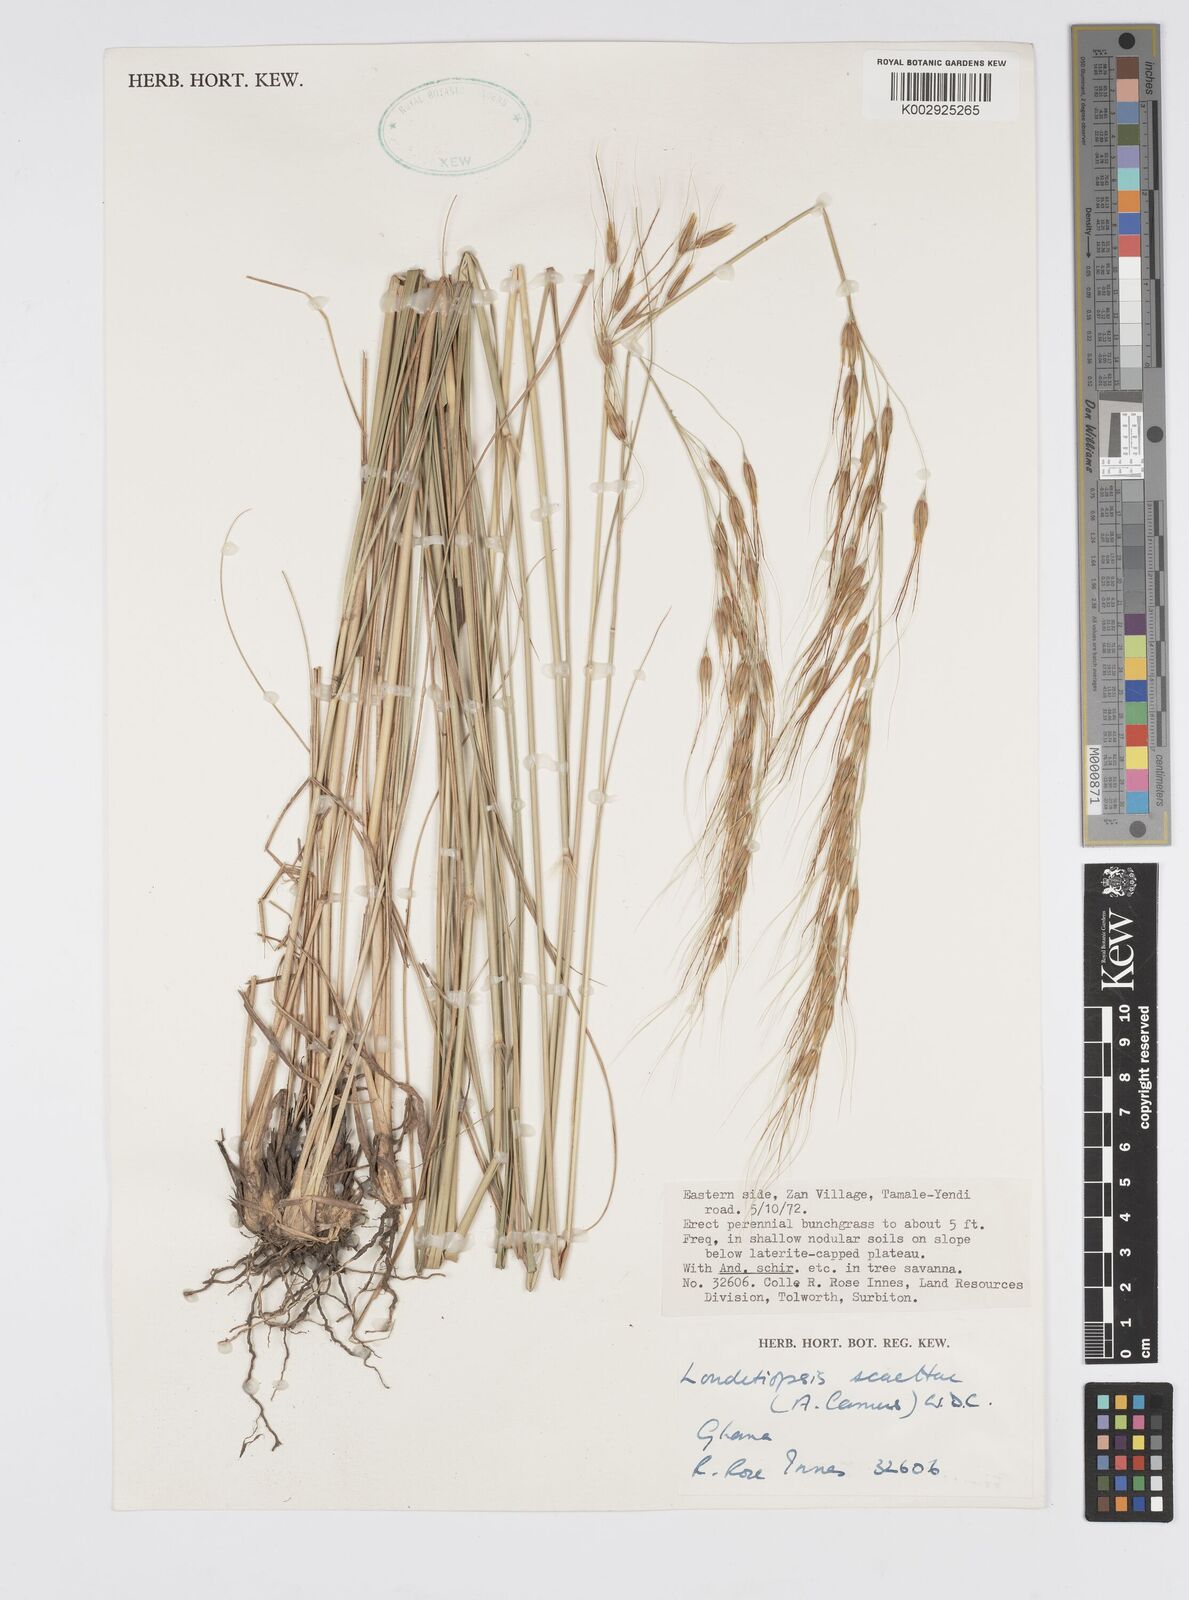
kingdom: Plantae
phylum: Tracheophyta
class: Liliopsida
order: Poales
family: Poaceae
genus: Loudetiopsis
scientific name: Loudetiopsis scaettae
